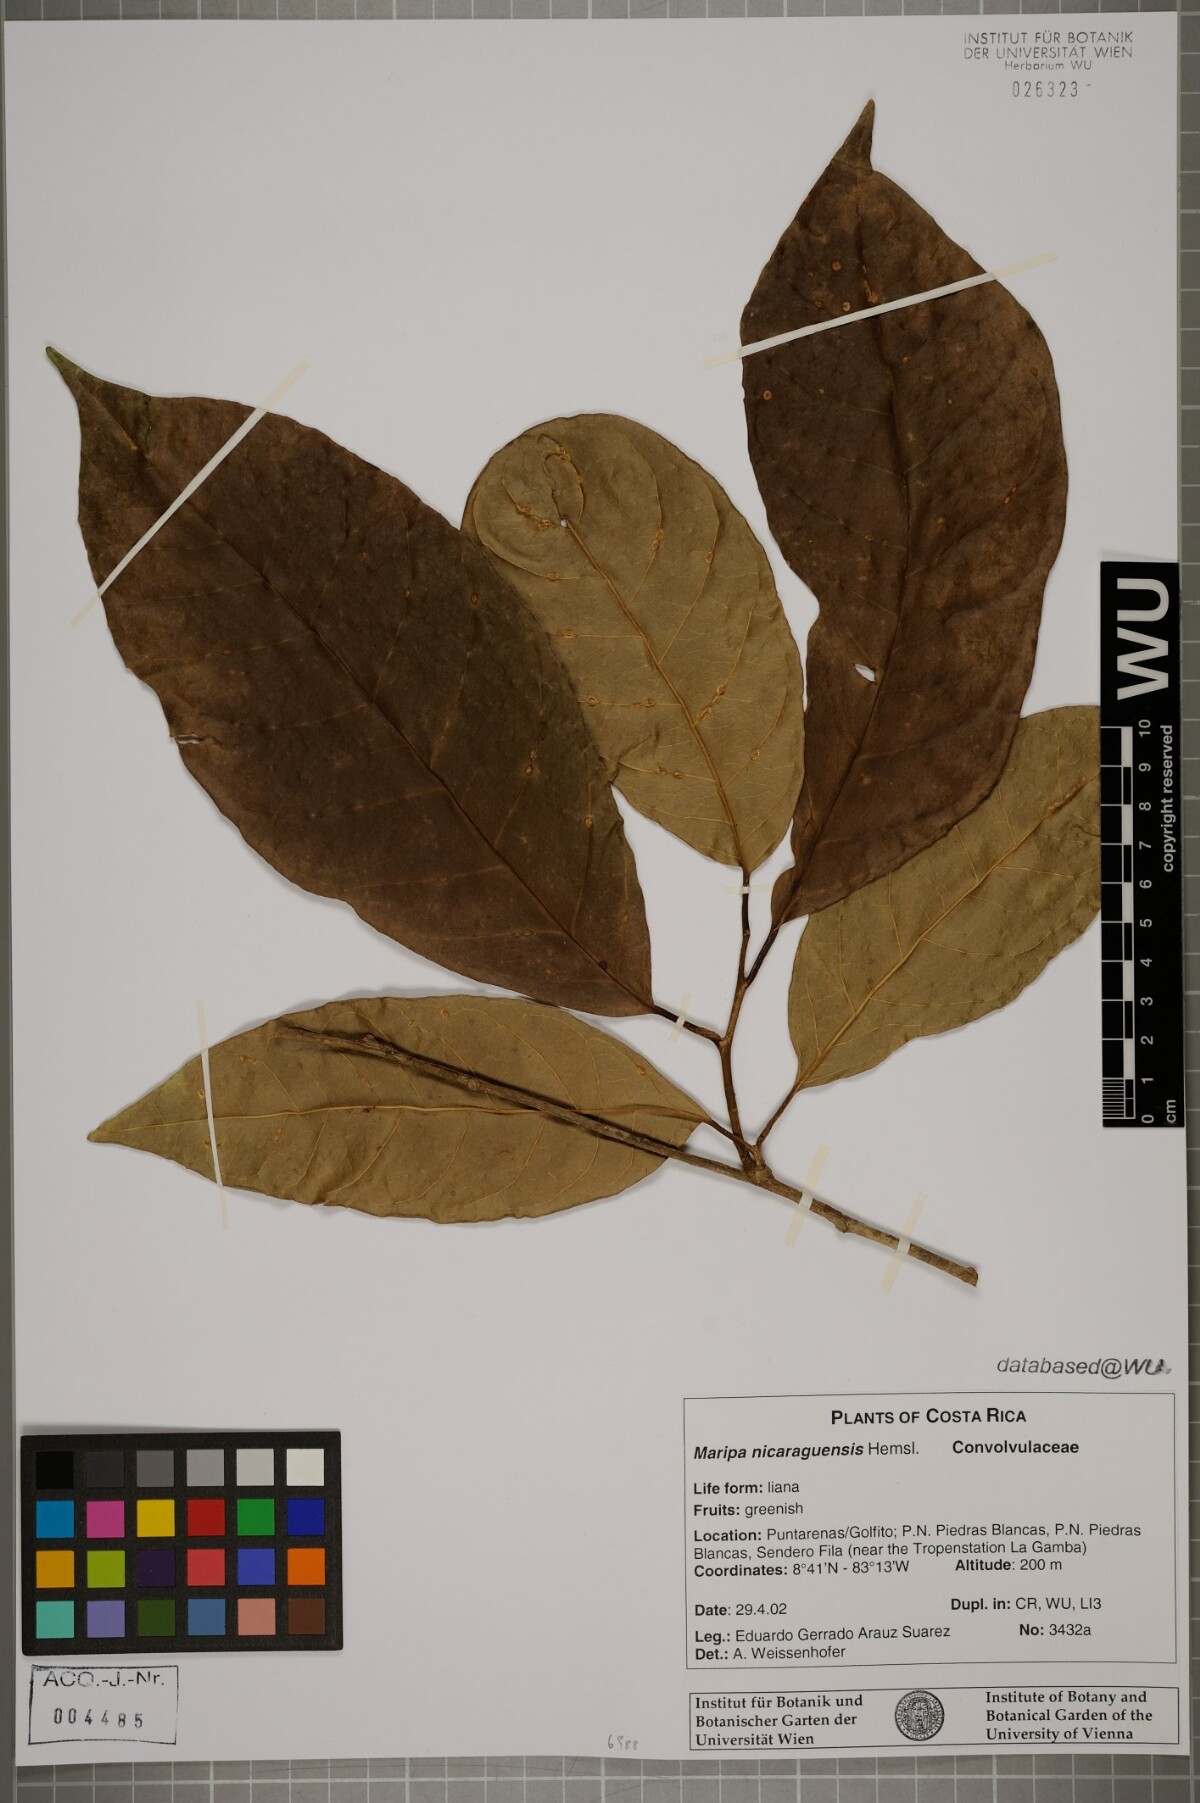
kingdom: Plantae
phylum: Tracheophyta
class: Magnoliopsida
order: Solanales
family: Convolvulaceae
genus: Maripa
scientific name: Maripa nicaraguensis
